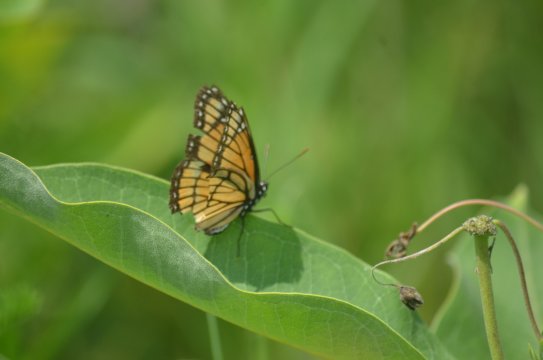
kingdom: Animalia
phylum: Arthropoda
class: Insecta
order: Lepidoptera
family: Nymphalidae
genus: Limenitis
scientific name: Limenitis archippus
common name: Viceroy
